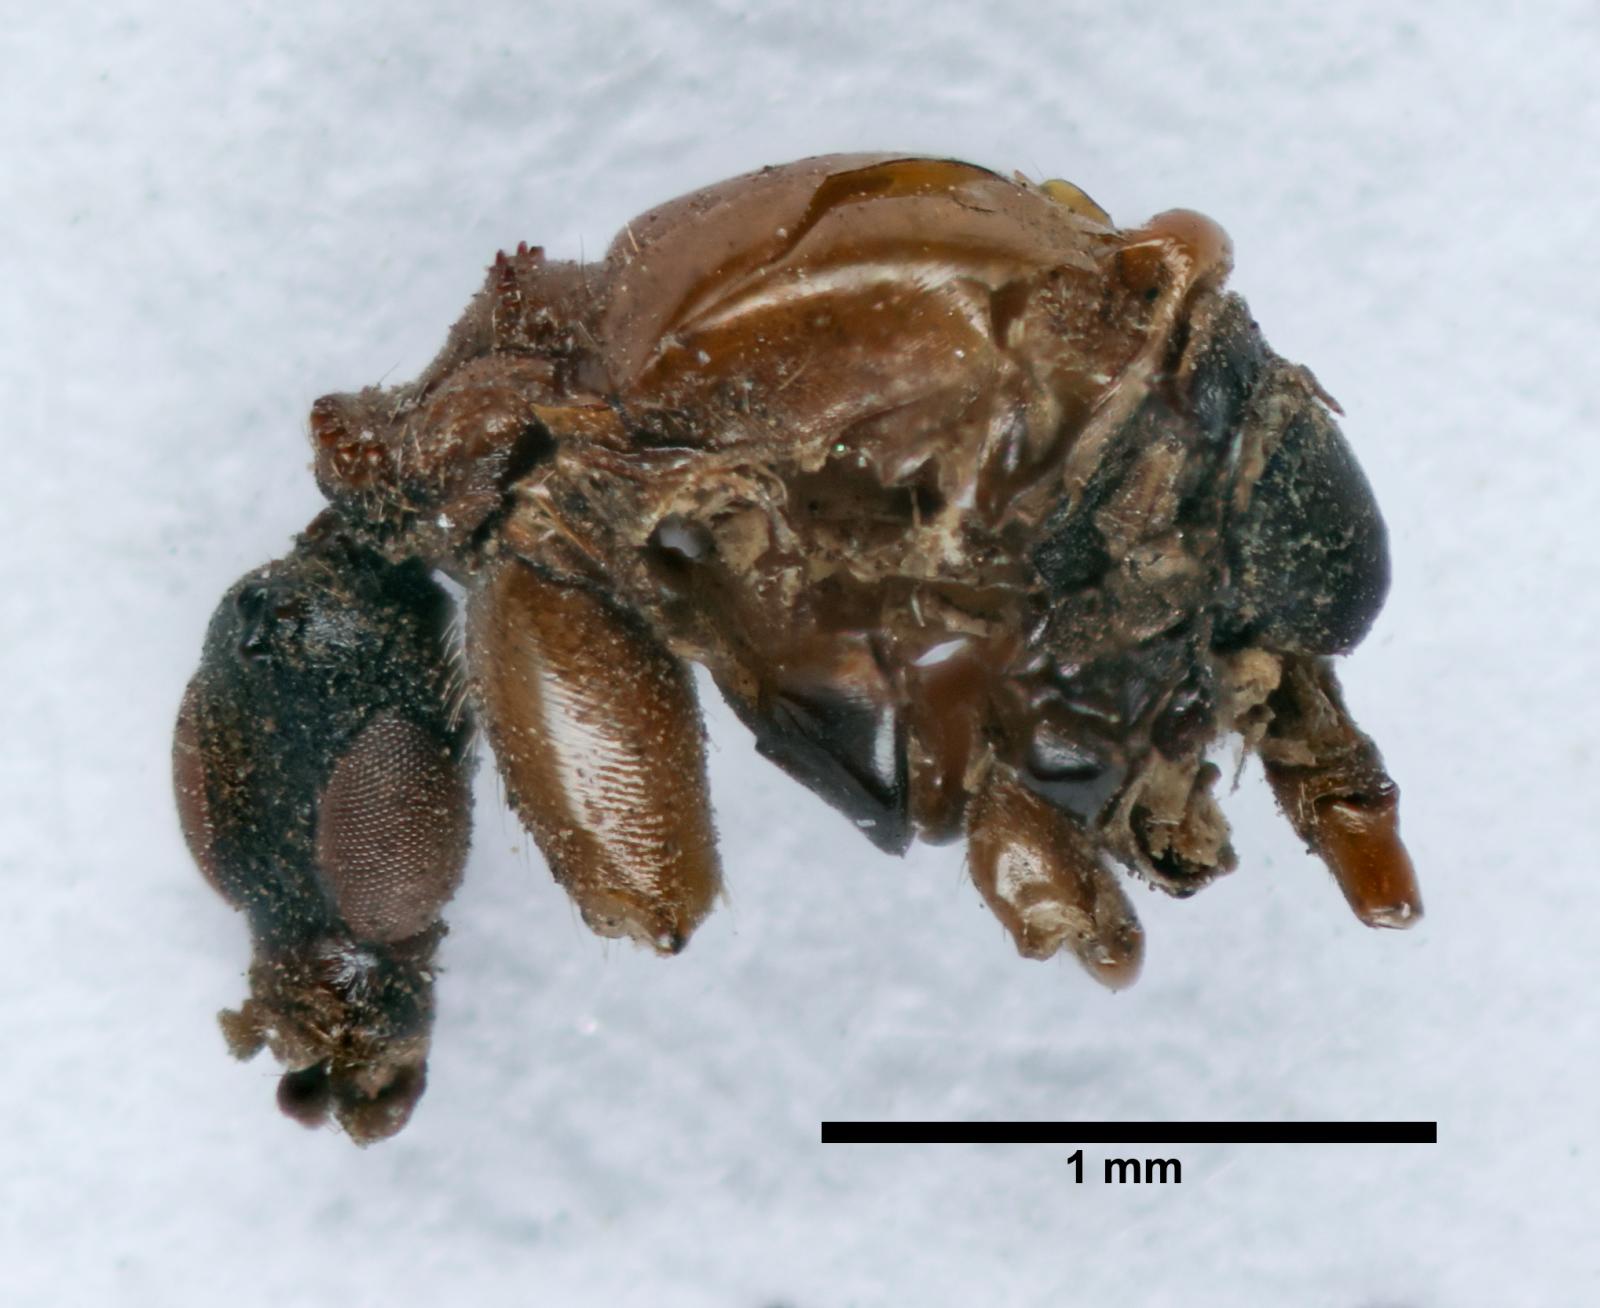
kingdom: Animalia
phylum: Arthropoda
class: Insecta
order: Diptera
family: Bibionidae
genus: Dilophus
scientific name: Dilophus
